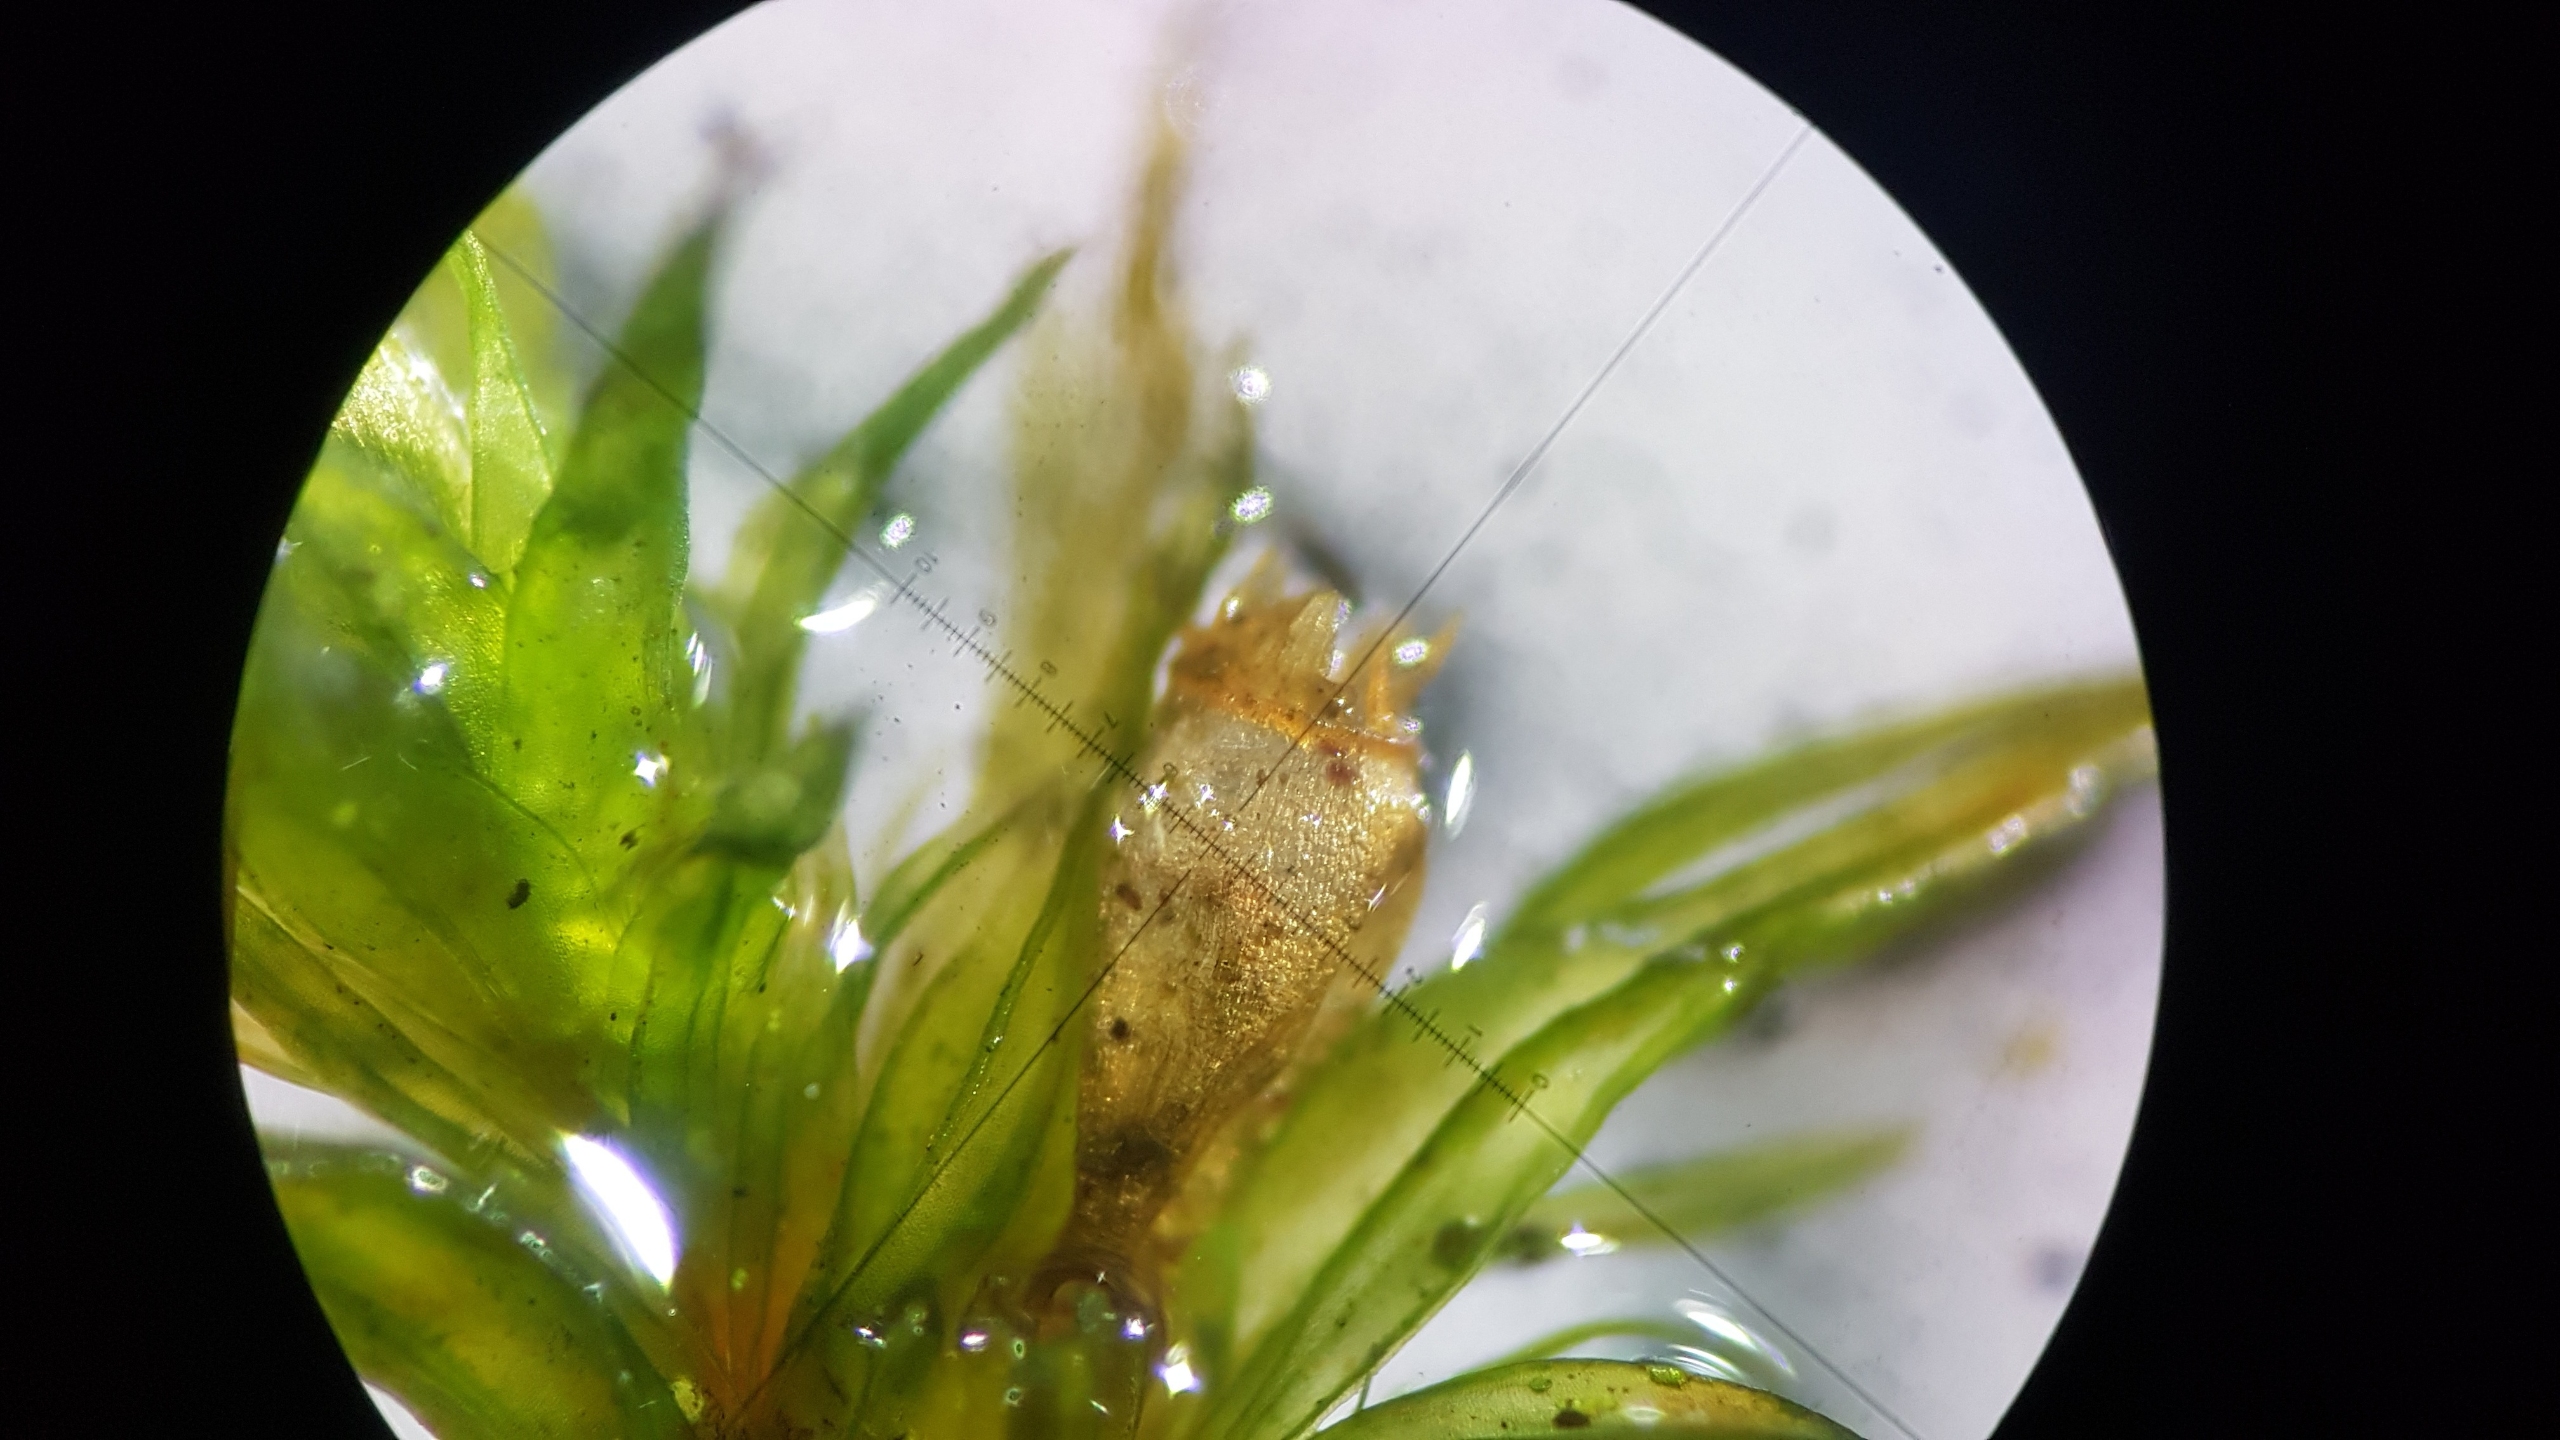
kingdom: Plantae
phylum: Bryophyta
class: Bryopsida
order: Orthotrichales
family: Orthotrichaceae
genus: Lewinskya
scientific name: Lewinskya striata
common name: Glatkapslet furehætte
